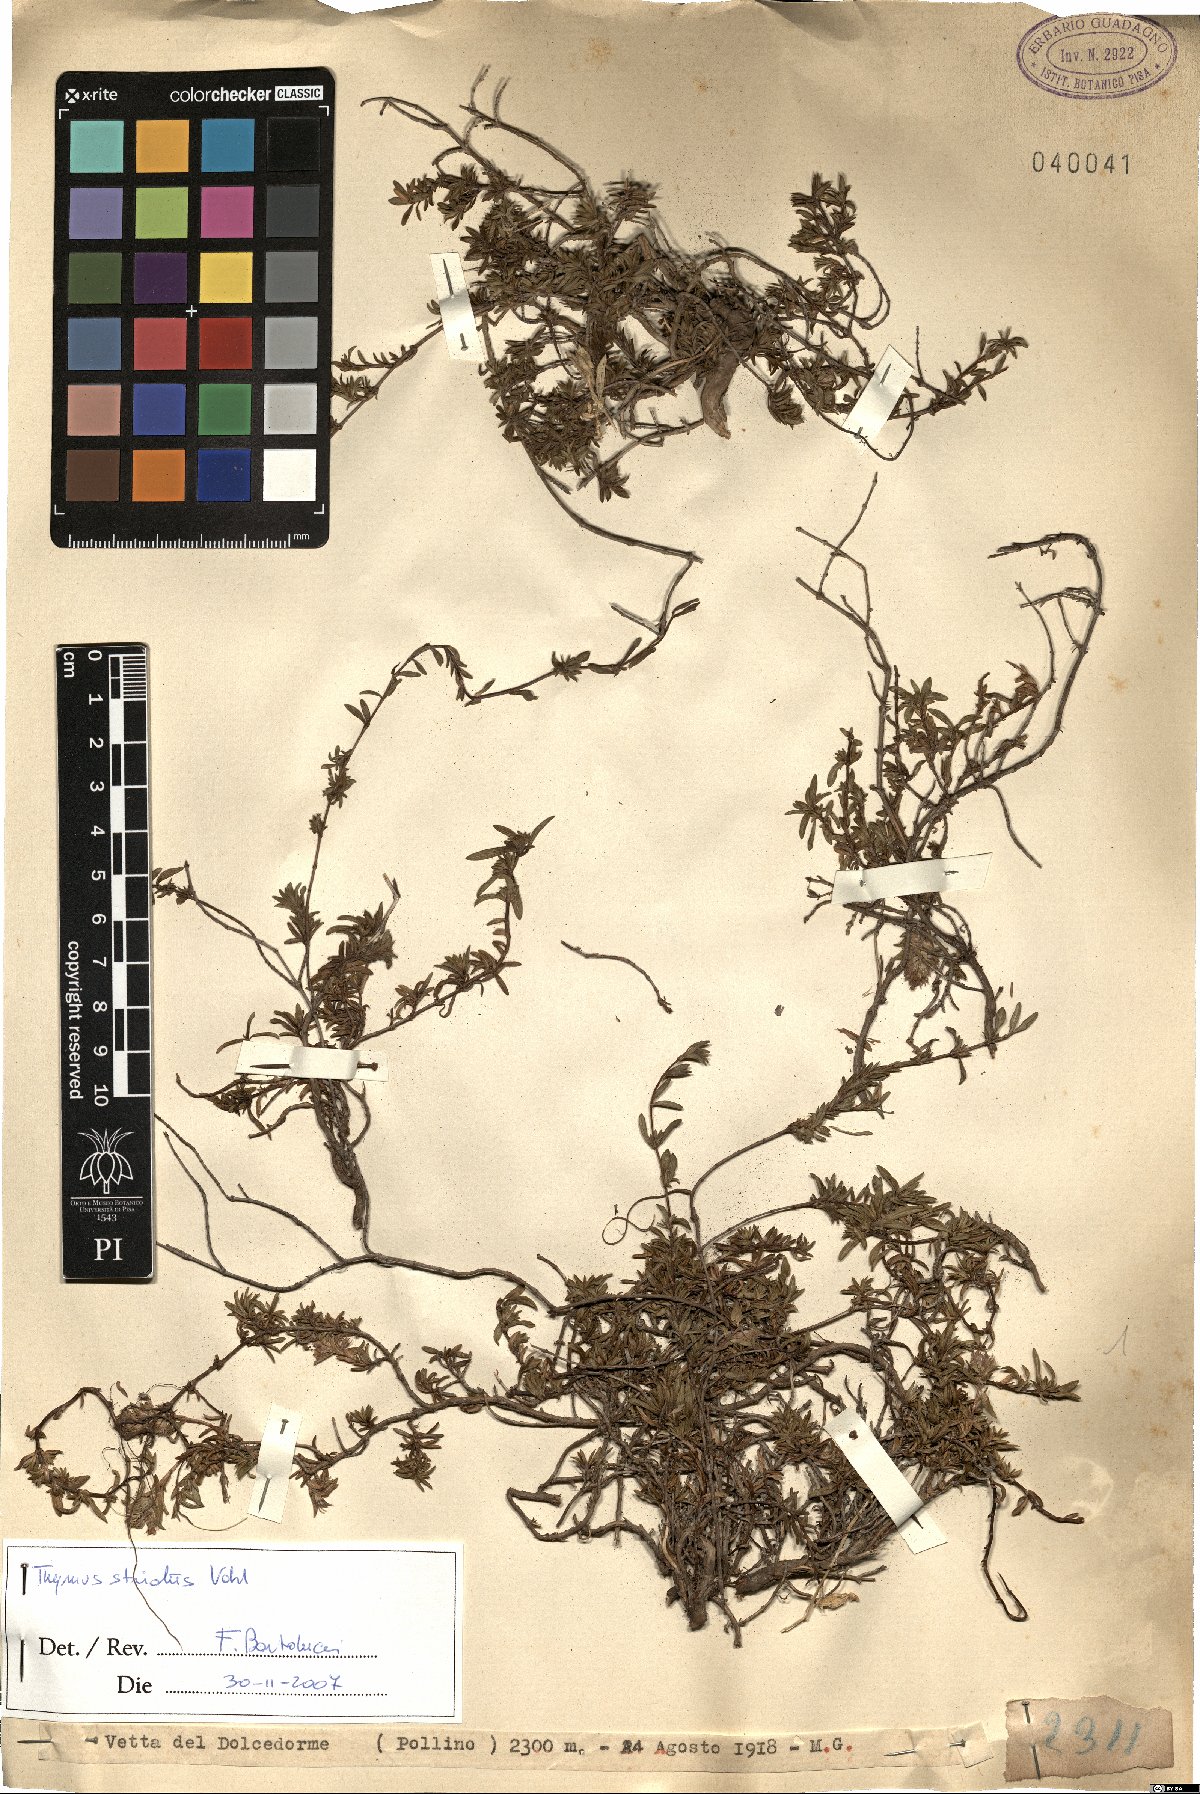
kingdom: Plantae
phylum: Tracheophyta
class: Magnoliopsida
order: Lamiales
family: Lamiaceae
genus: Thymus
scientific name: Thymus striatus
